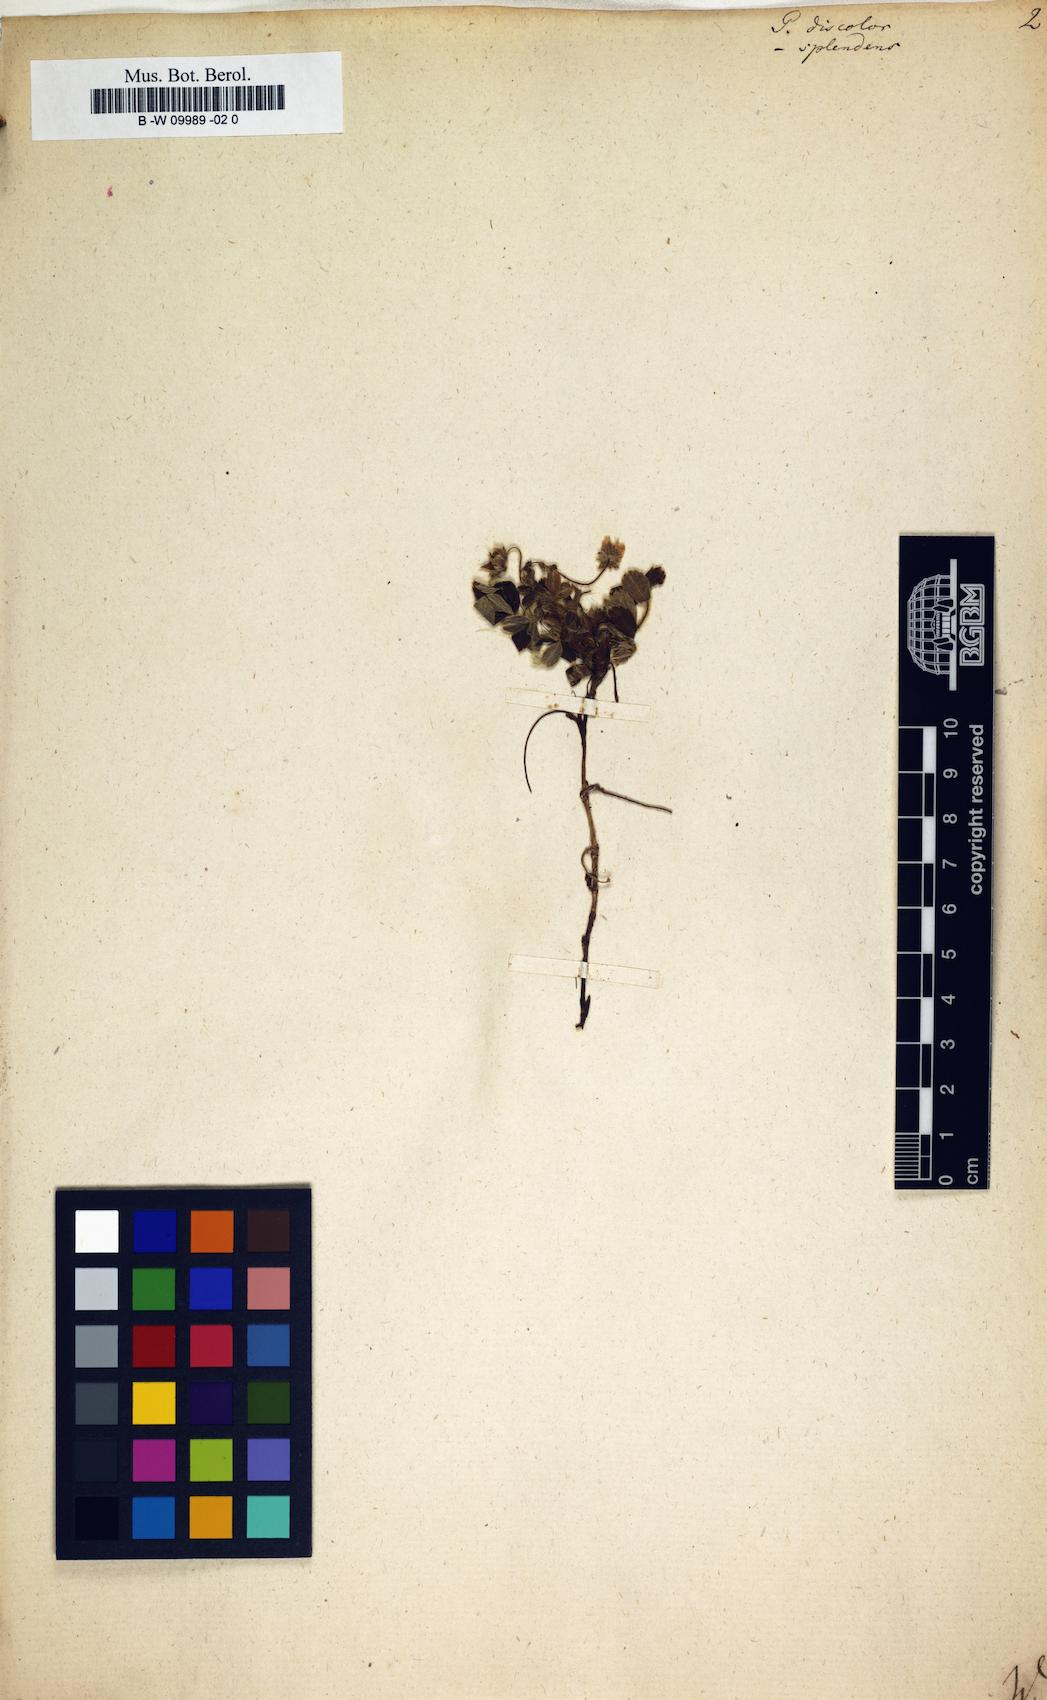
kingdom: Plantae
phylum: Tracheophyta
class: Magnoliopsida
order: Rosales
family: Rosaceae
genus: Potentilla
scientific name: Potentilla discolor
